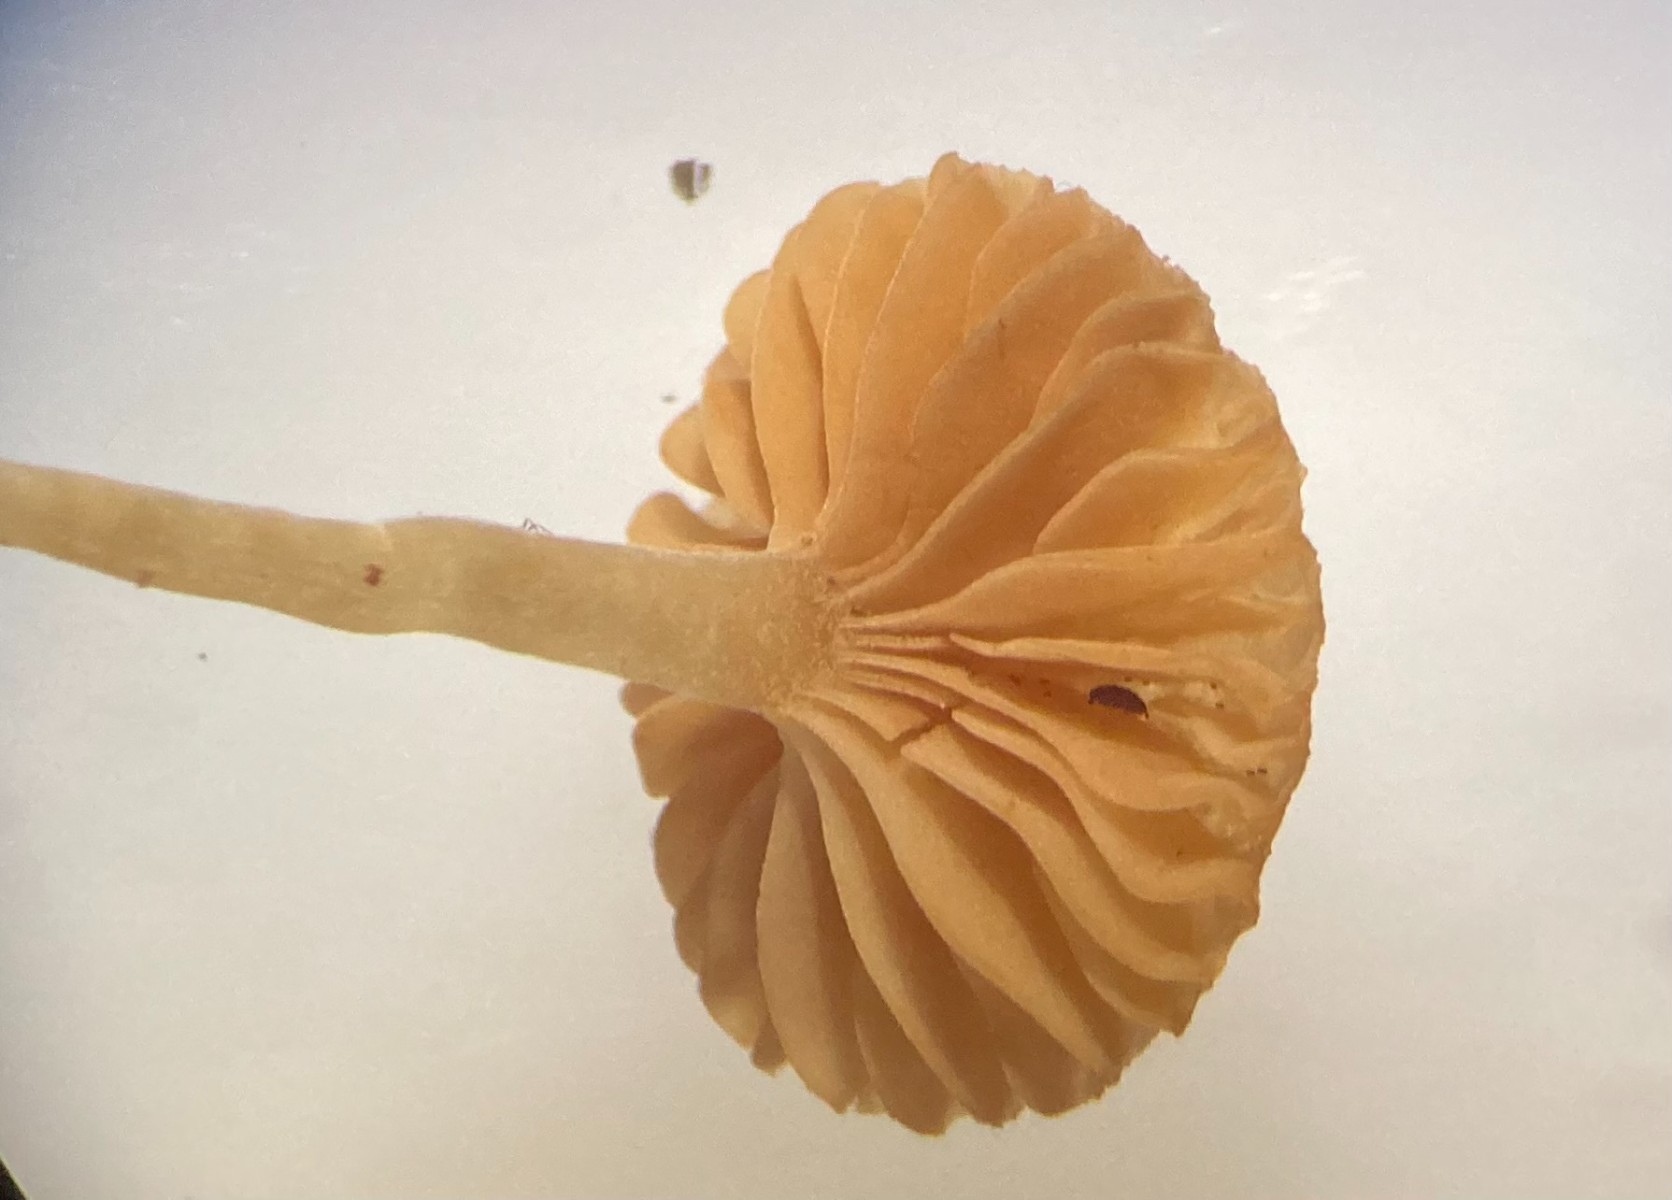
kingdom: Fungi
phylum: Basidiomycota
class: Agaricomycetes
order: Agaricales
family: Hymenogastraceae
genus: Galerina
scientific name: Galerina
